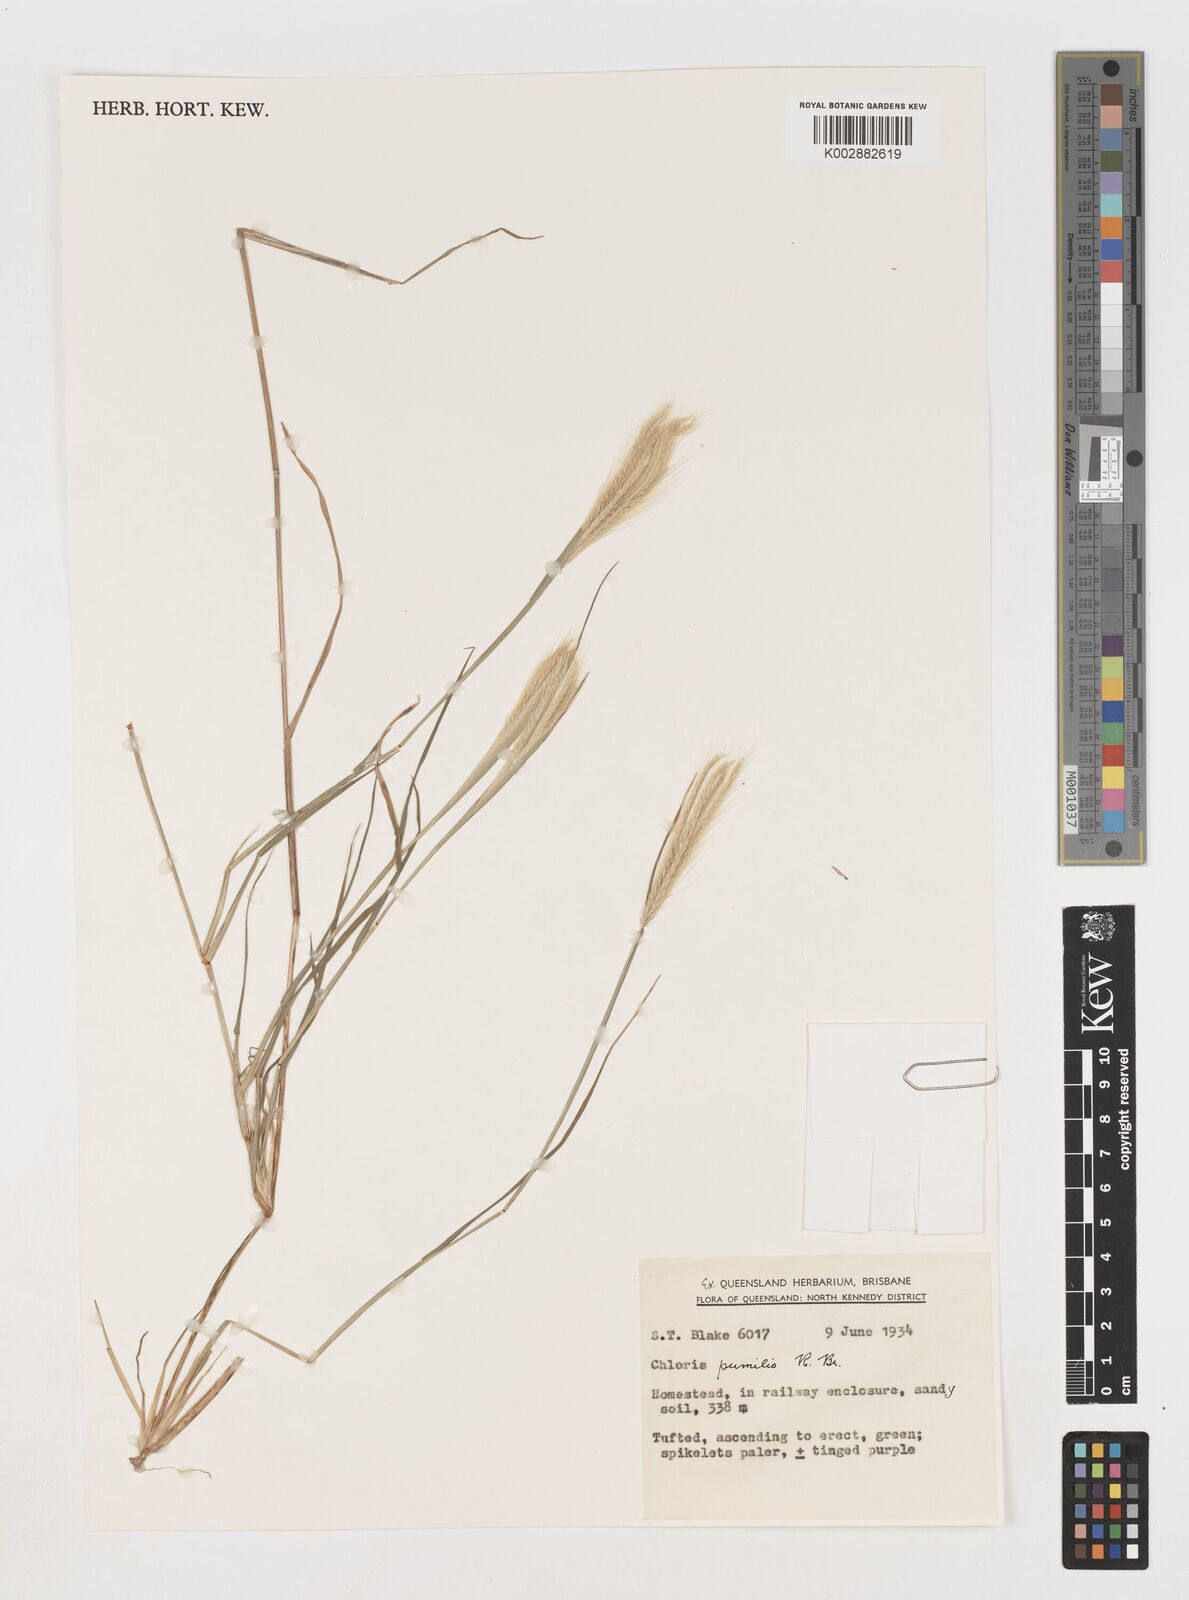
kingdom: Plantae
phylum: Tracheophyta
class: Liliopsida
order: Poales
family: Poaceae
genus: Chloris
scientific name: Chloris pumilio
